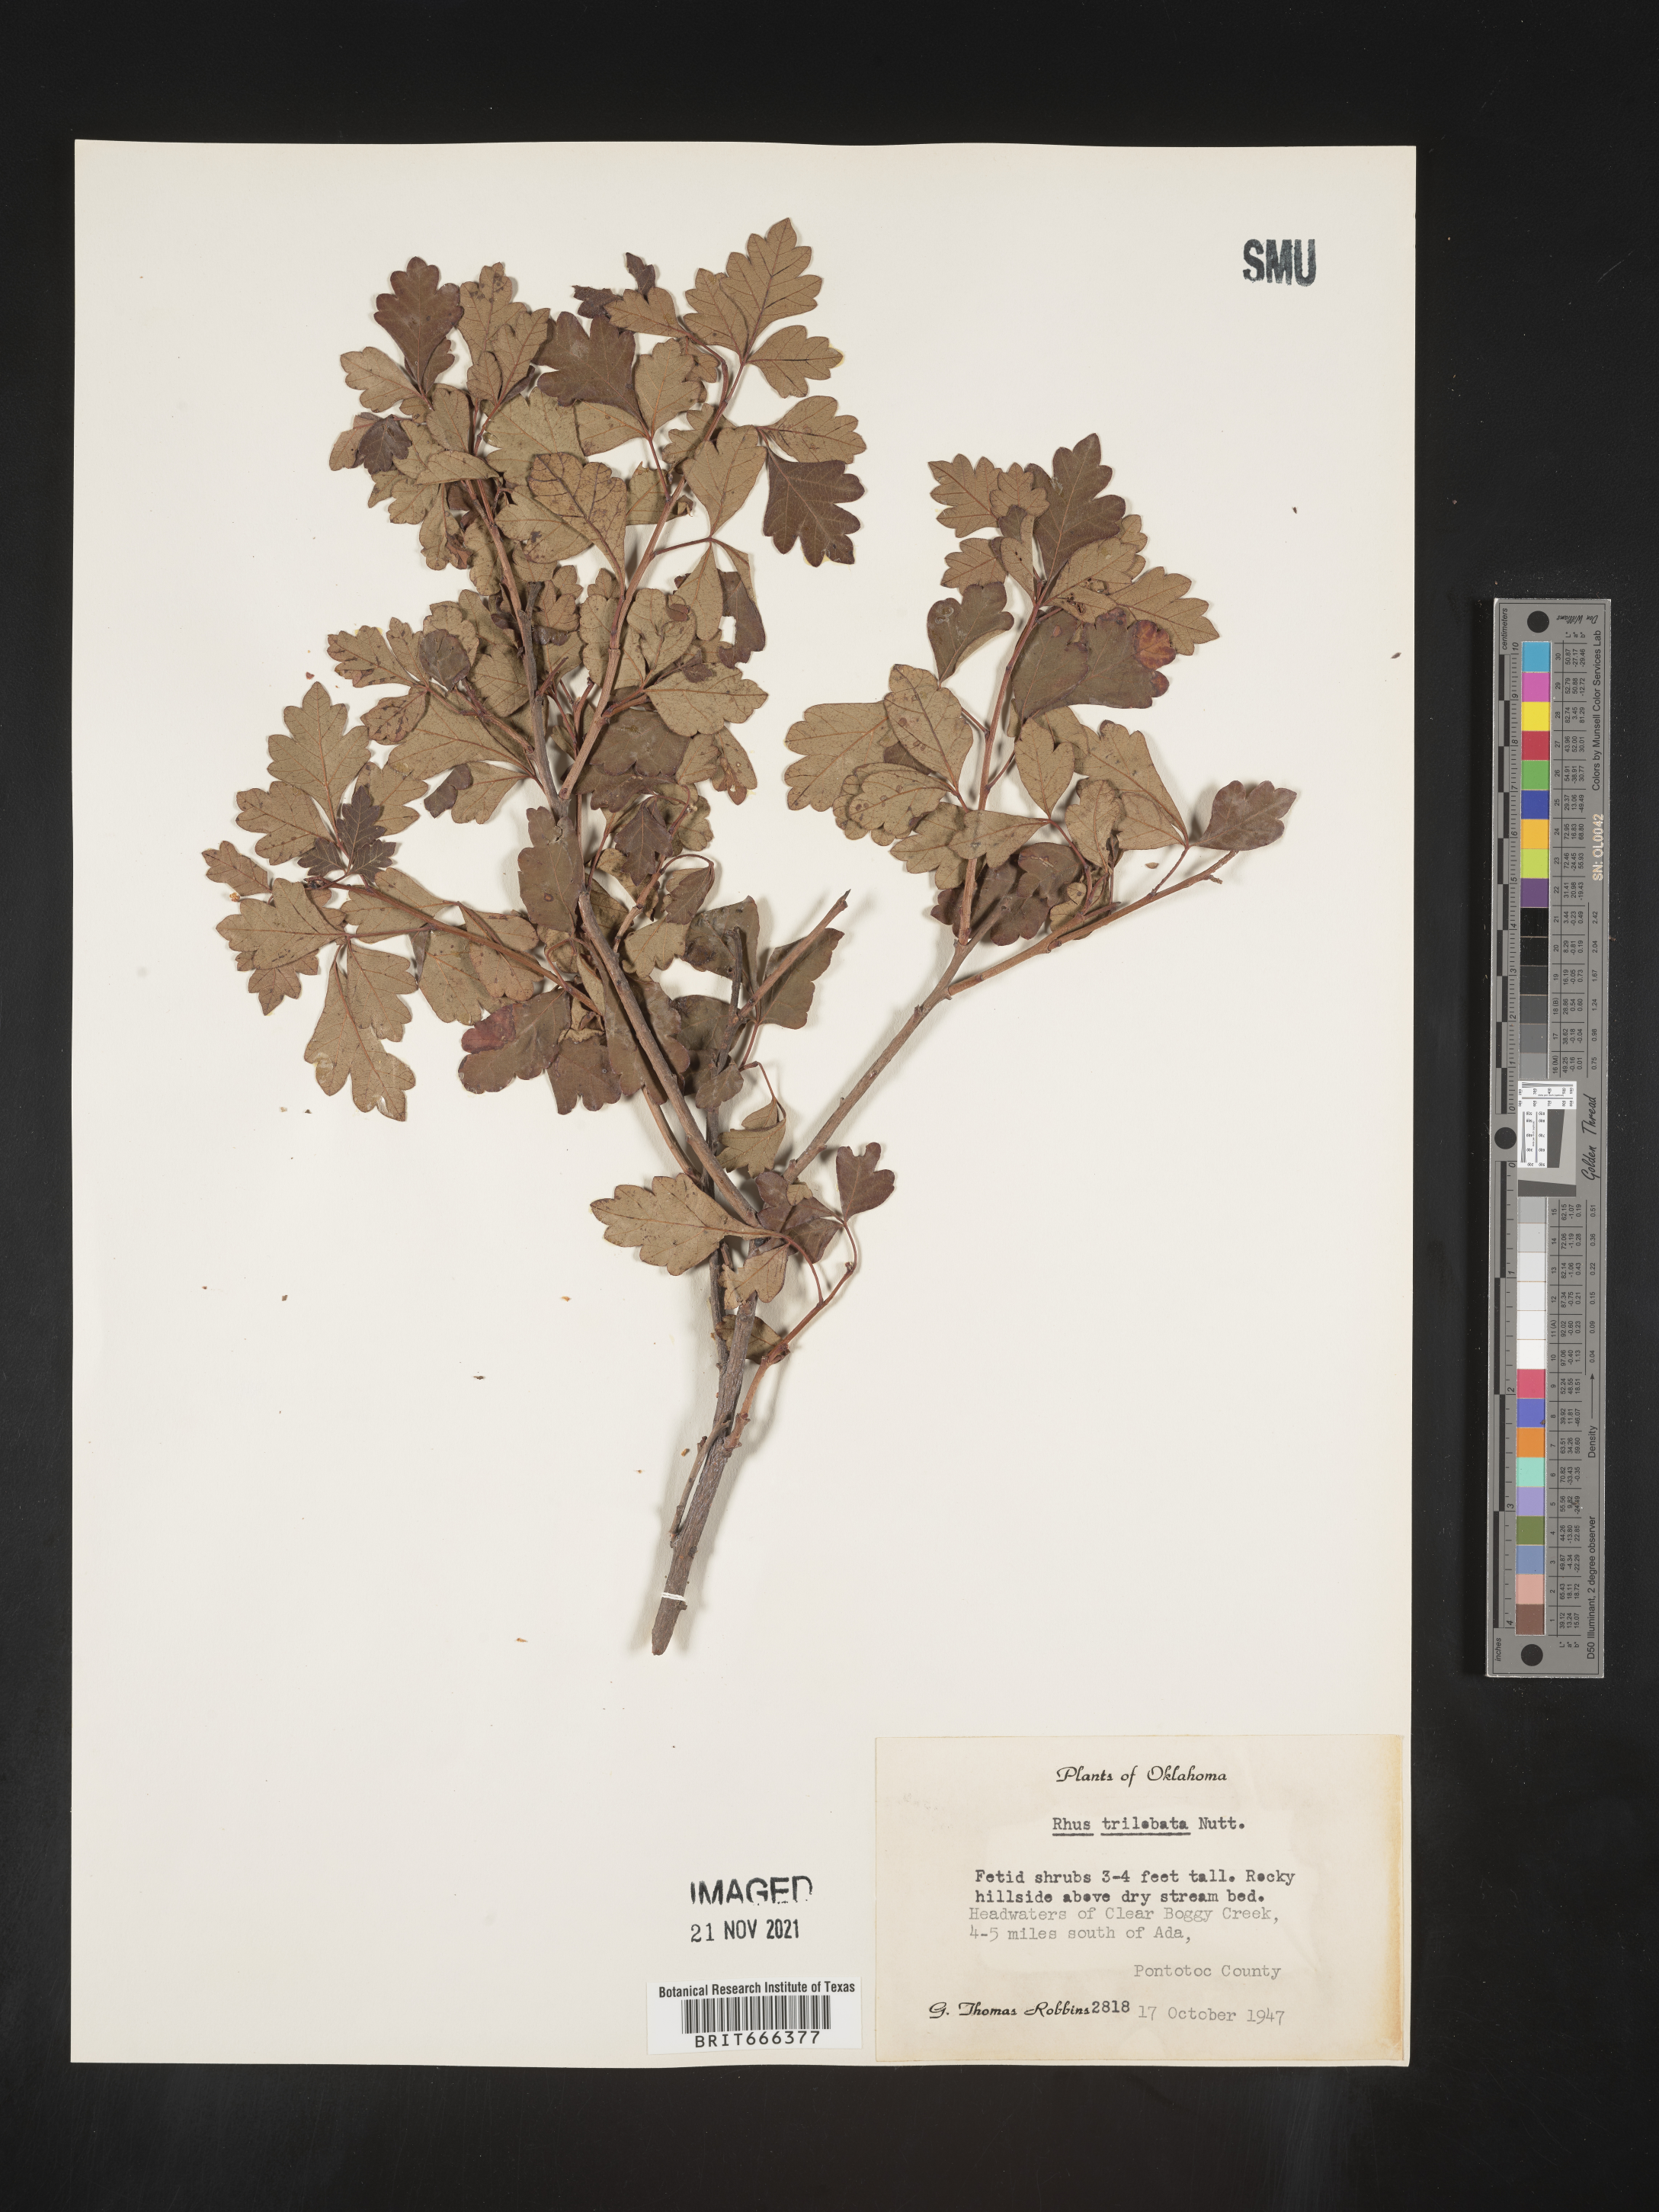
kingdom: Plantae
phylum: Tracheophyta
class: Magnoliopsida
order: Sapindales
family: Anacardiaceae
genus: Rhus
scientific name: Rhus trilobata
